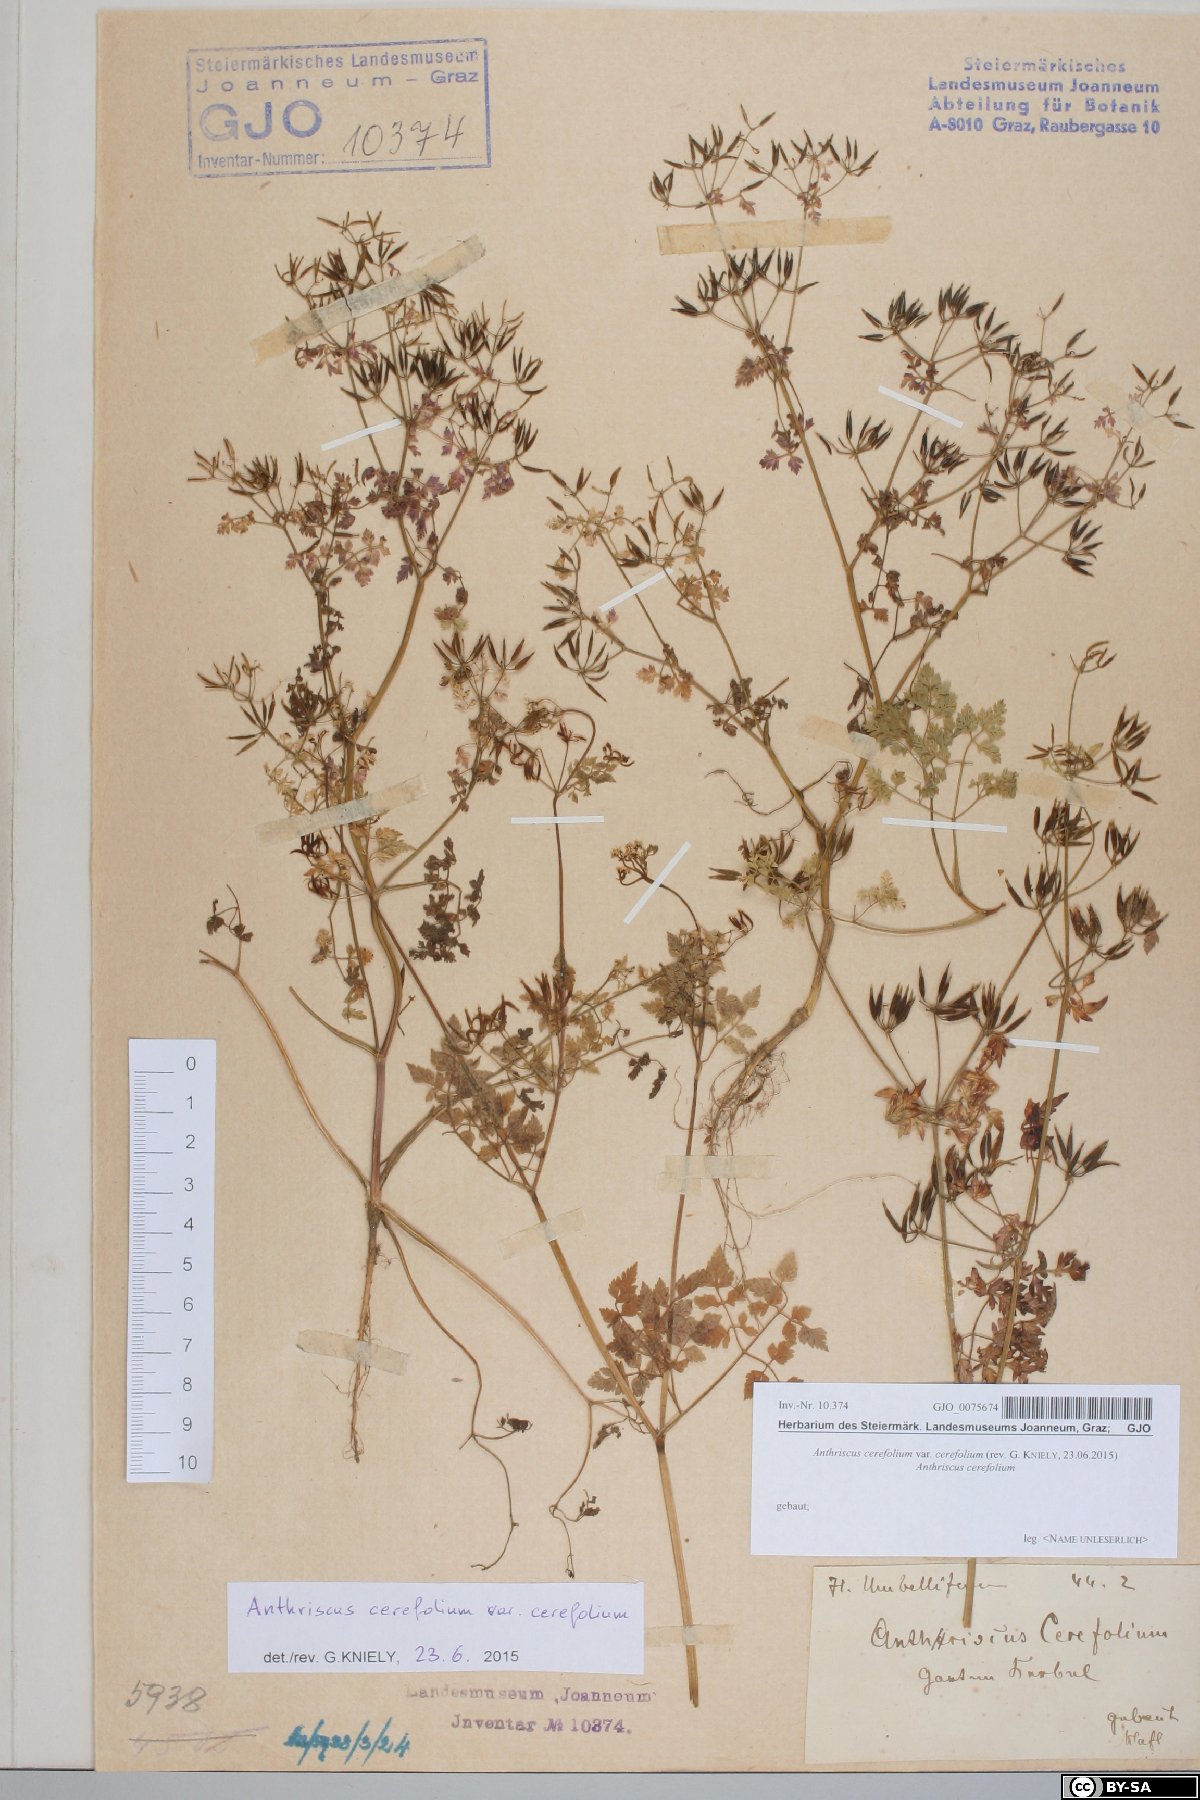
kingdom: Plantae
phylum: Tracheophyta
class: Magnoliopsida
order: Apiales
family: Apiaceae
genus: Anthriscus
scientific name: Anthriscus cerefolium
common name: Garden chervil
